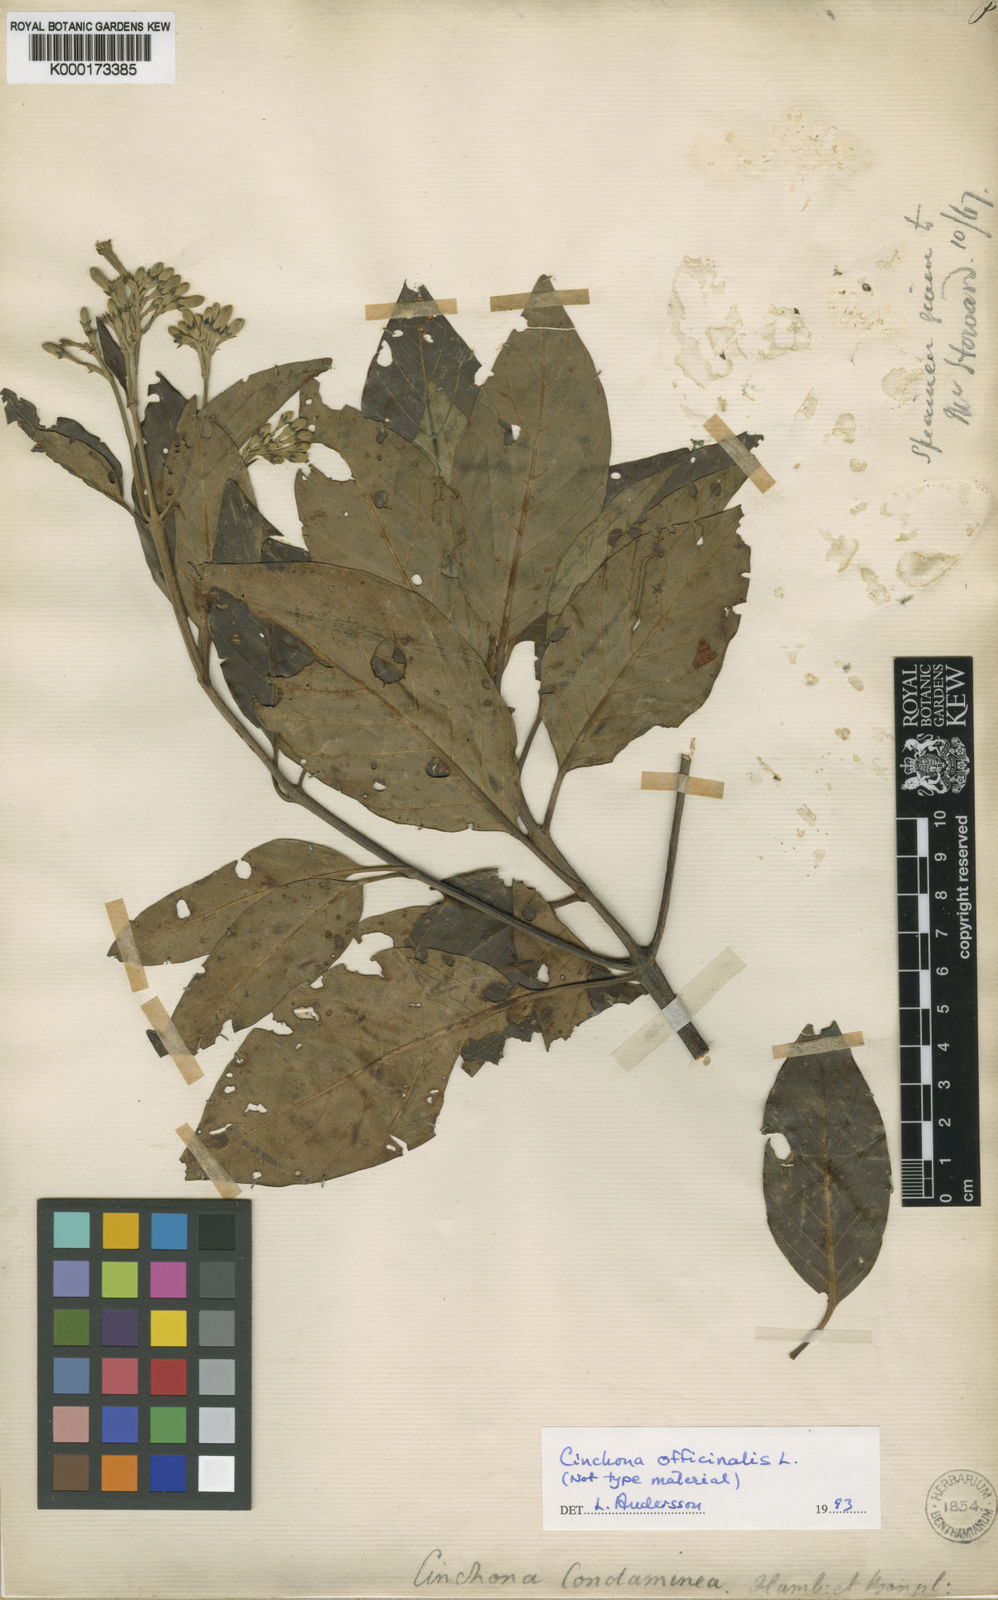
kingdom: Plantae
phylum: Tracheophyta
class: Magnoliopsida
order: Gentianales
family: Rubiaceae
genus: Cinchona
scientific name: Cinchona officinalis
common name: Lojabark
